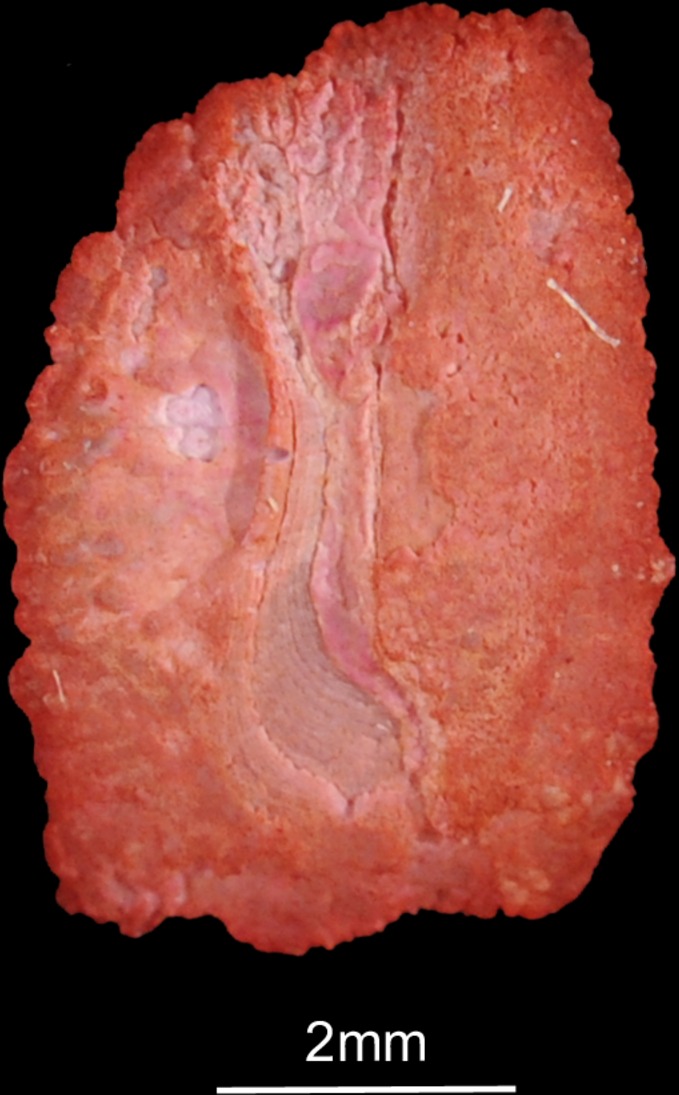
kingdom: Animalia
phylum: Chordata
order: Perciformes
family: Cichlidae
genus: Serranochromis
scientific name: Serranochromis macrocephalus
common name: Purpleface largemouth
